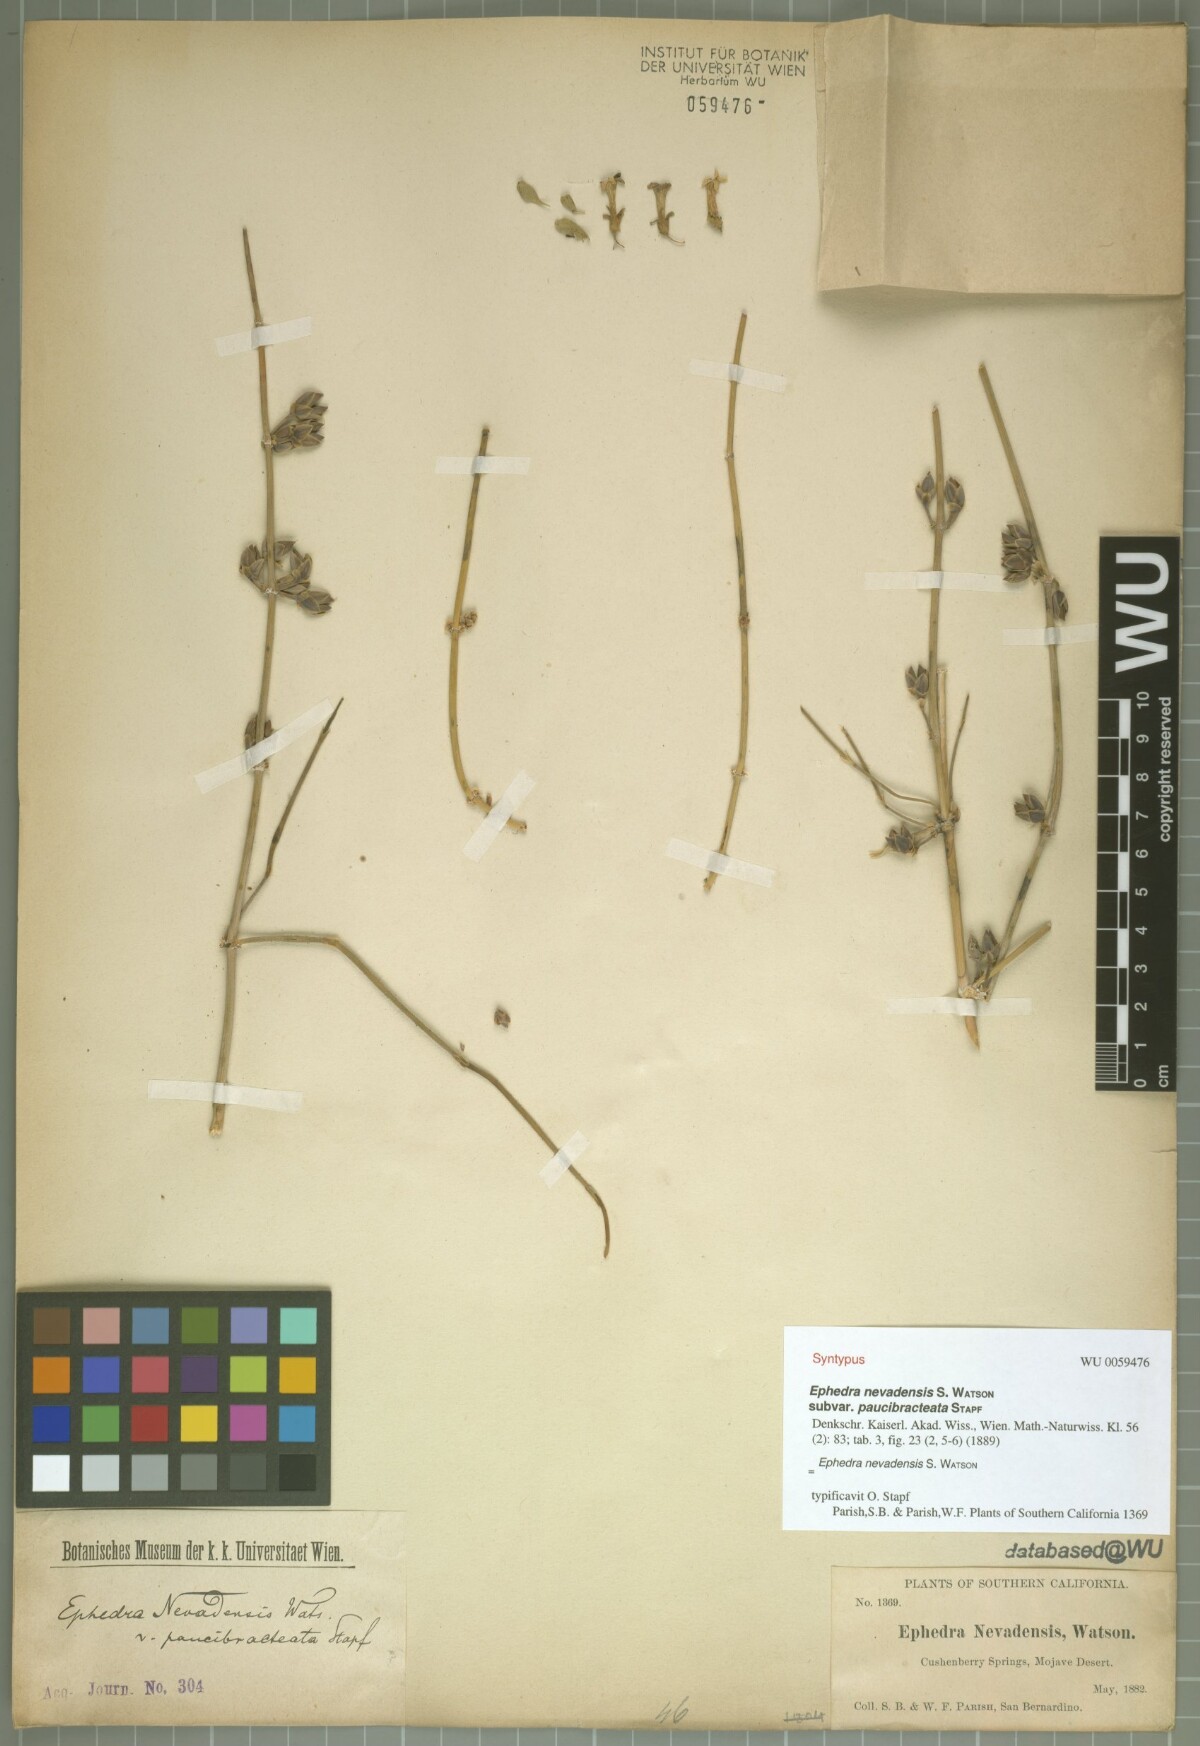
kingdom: Plantae
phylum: Tracheophyta
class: Gnetopsida
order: Ephedrales
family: Ephedraceae
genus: Ephedra
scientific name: Ephedra nevadensis
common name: Gray ephedra
